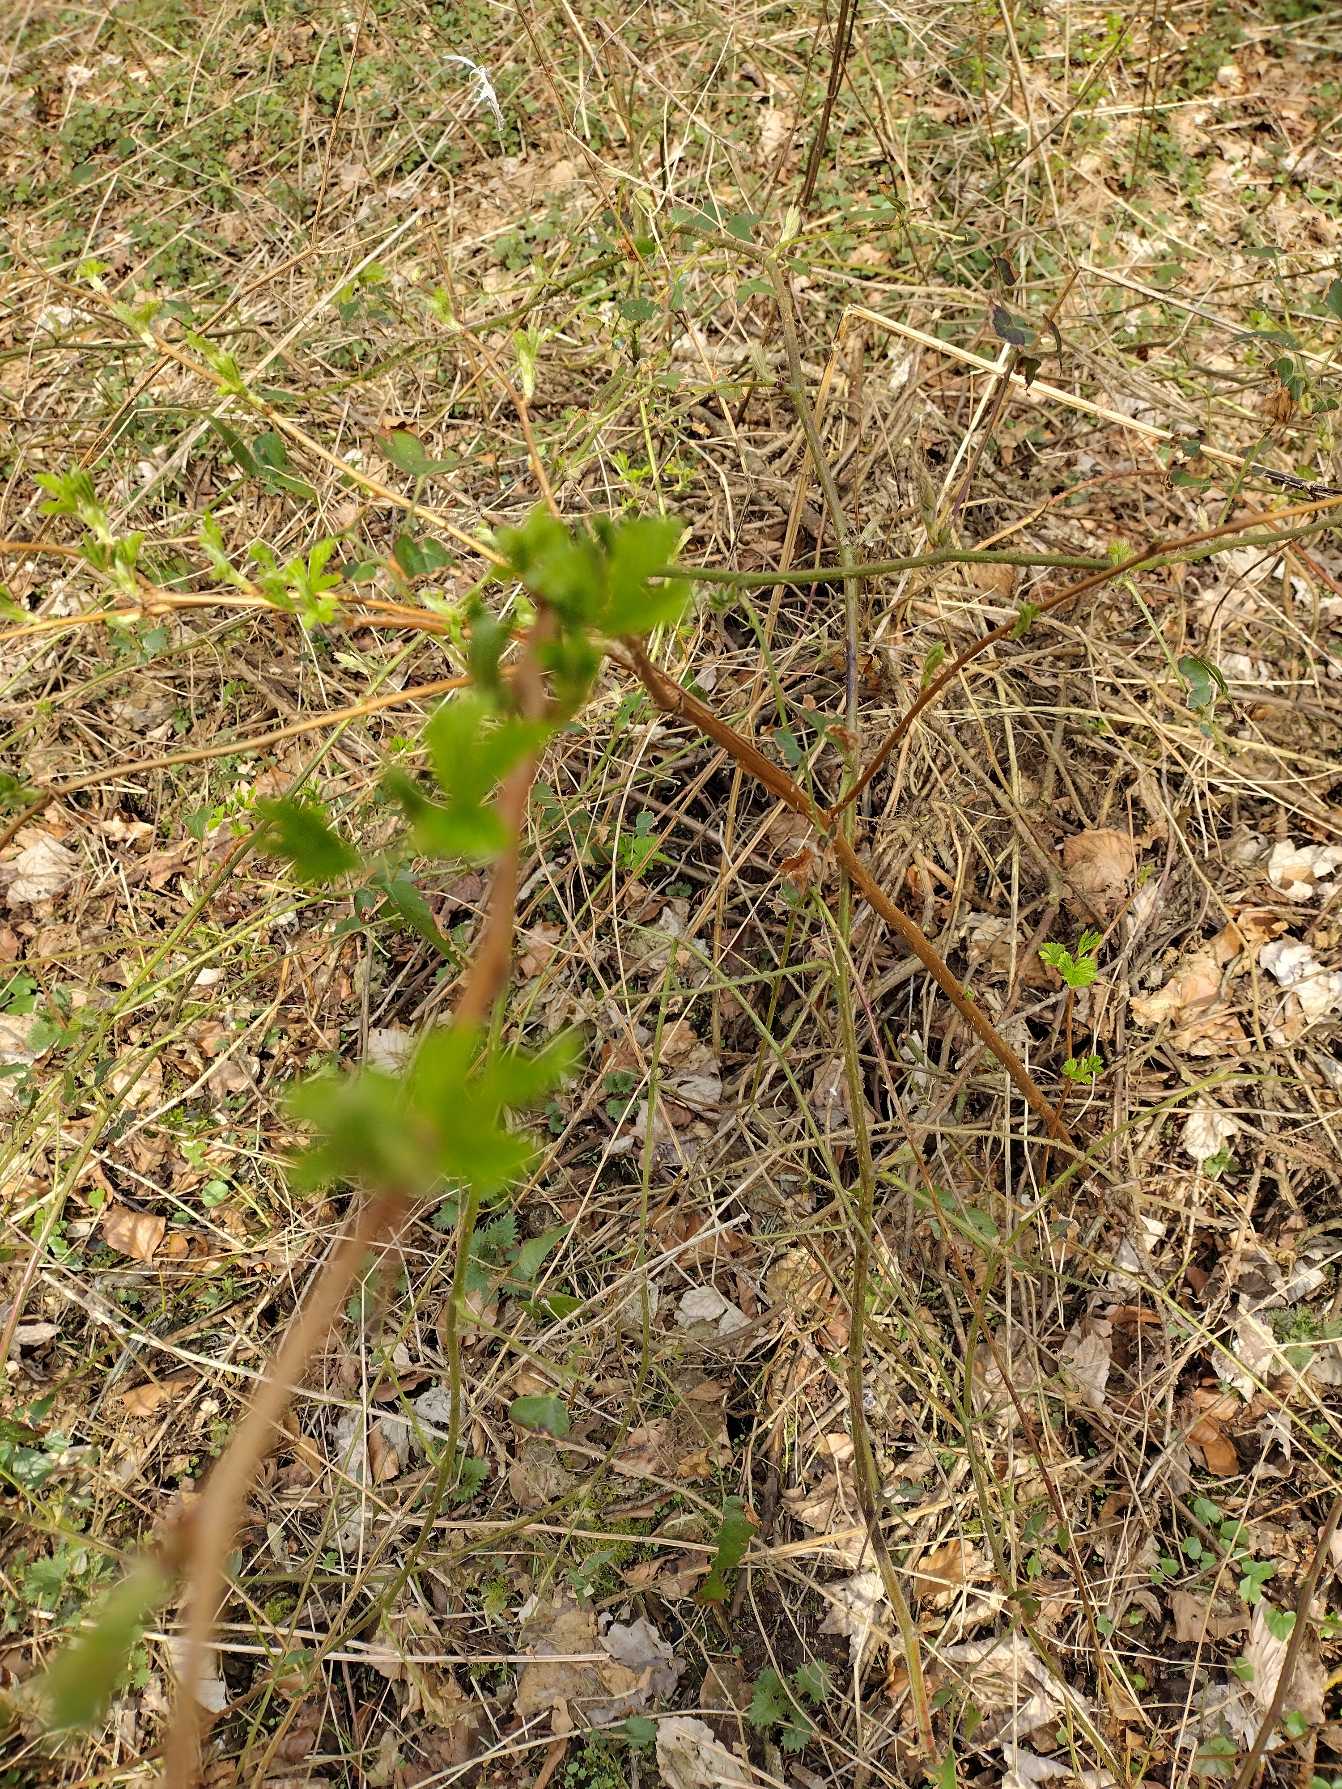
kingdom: Plantae
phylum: Tracheophyta
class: Magnoliopsida
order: Rosales
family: Rosaceae
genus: Rubus
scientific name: Rubus spectabilis
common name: Laksebær
